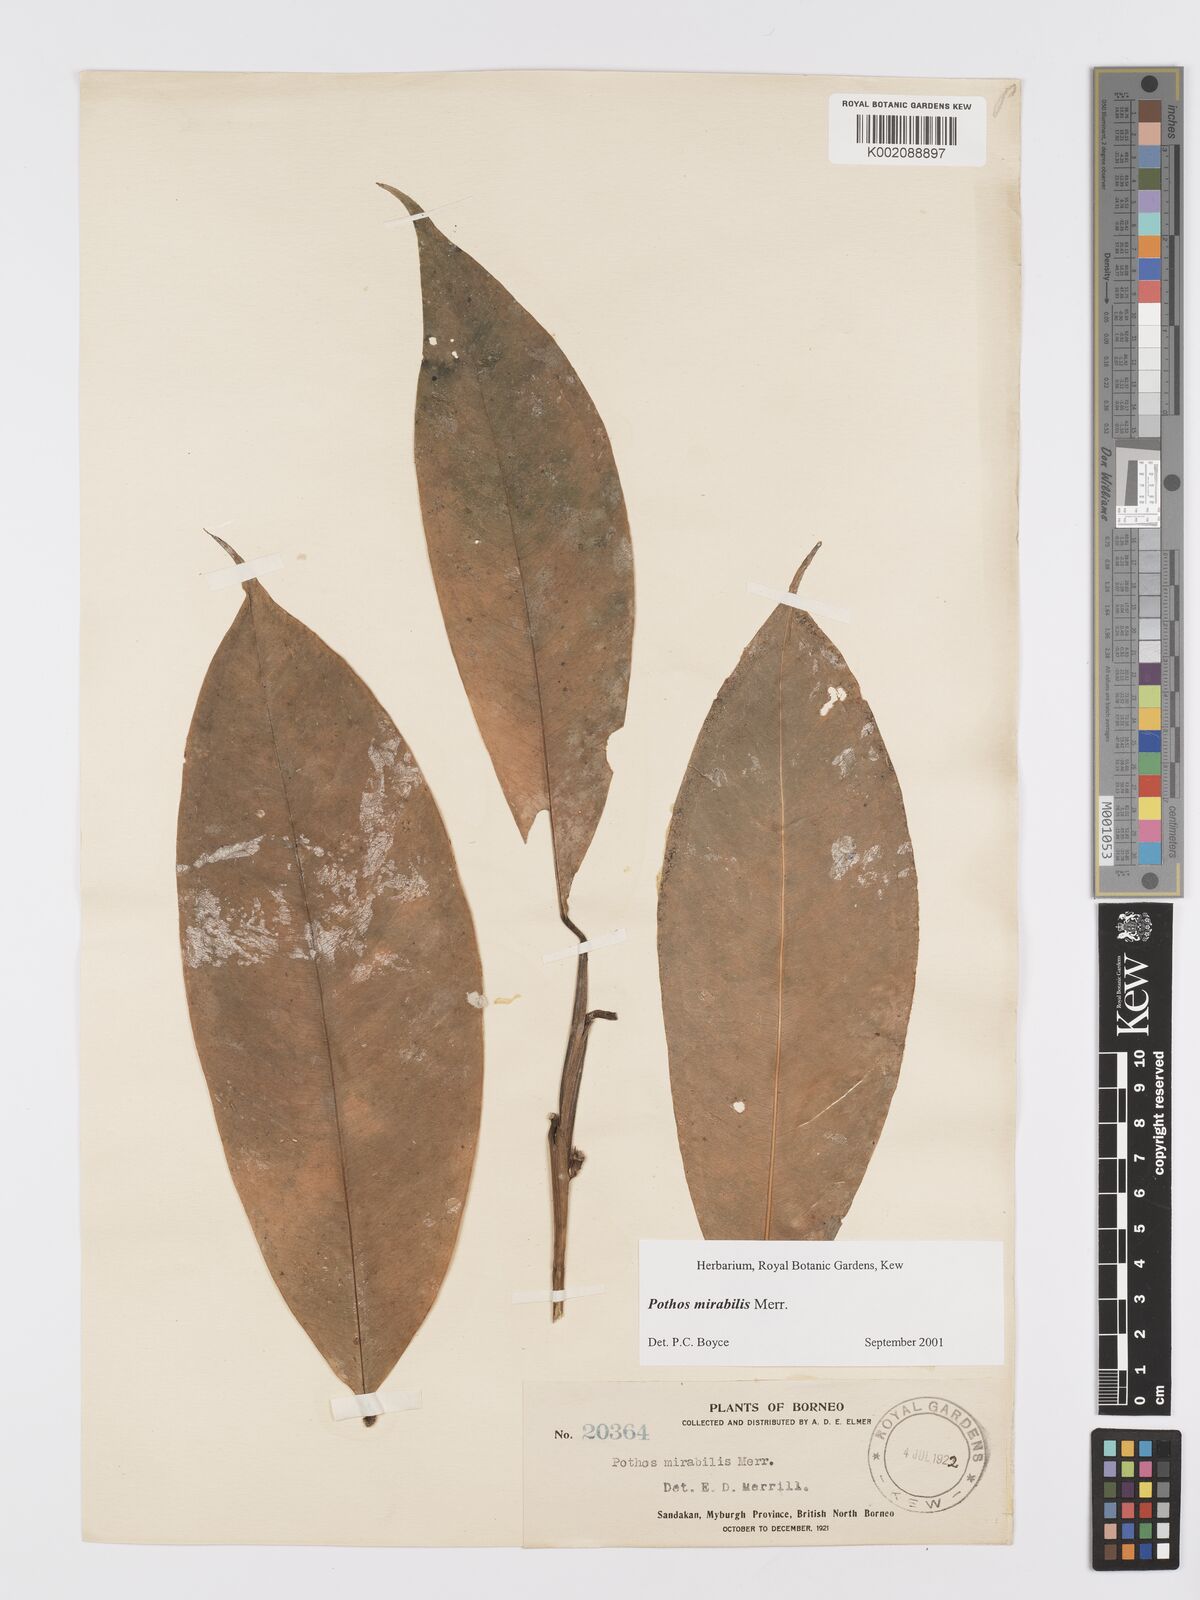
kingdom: Plantae
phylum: Tracheophyta
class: Liliopsida
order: Alismatales
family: Araceae
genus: Pothos
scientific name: Pothos mirabilis
